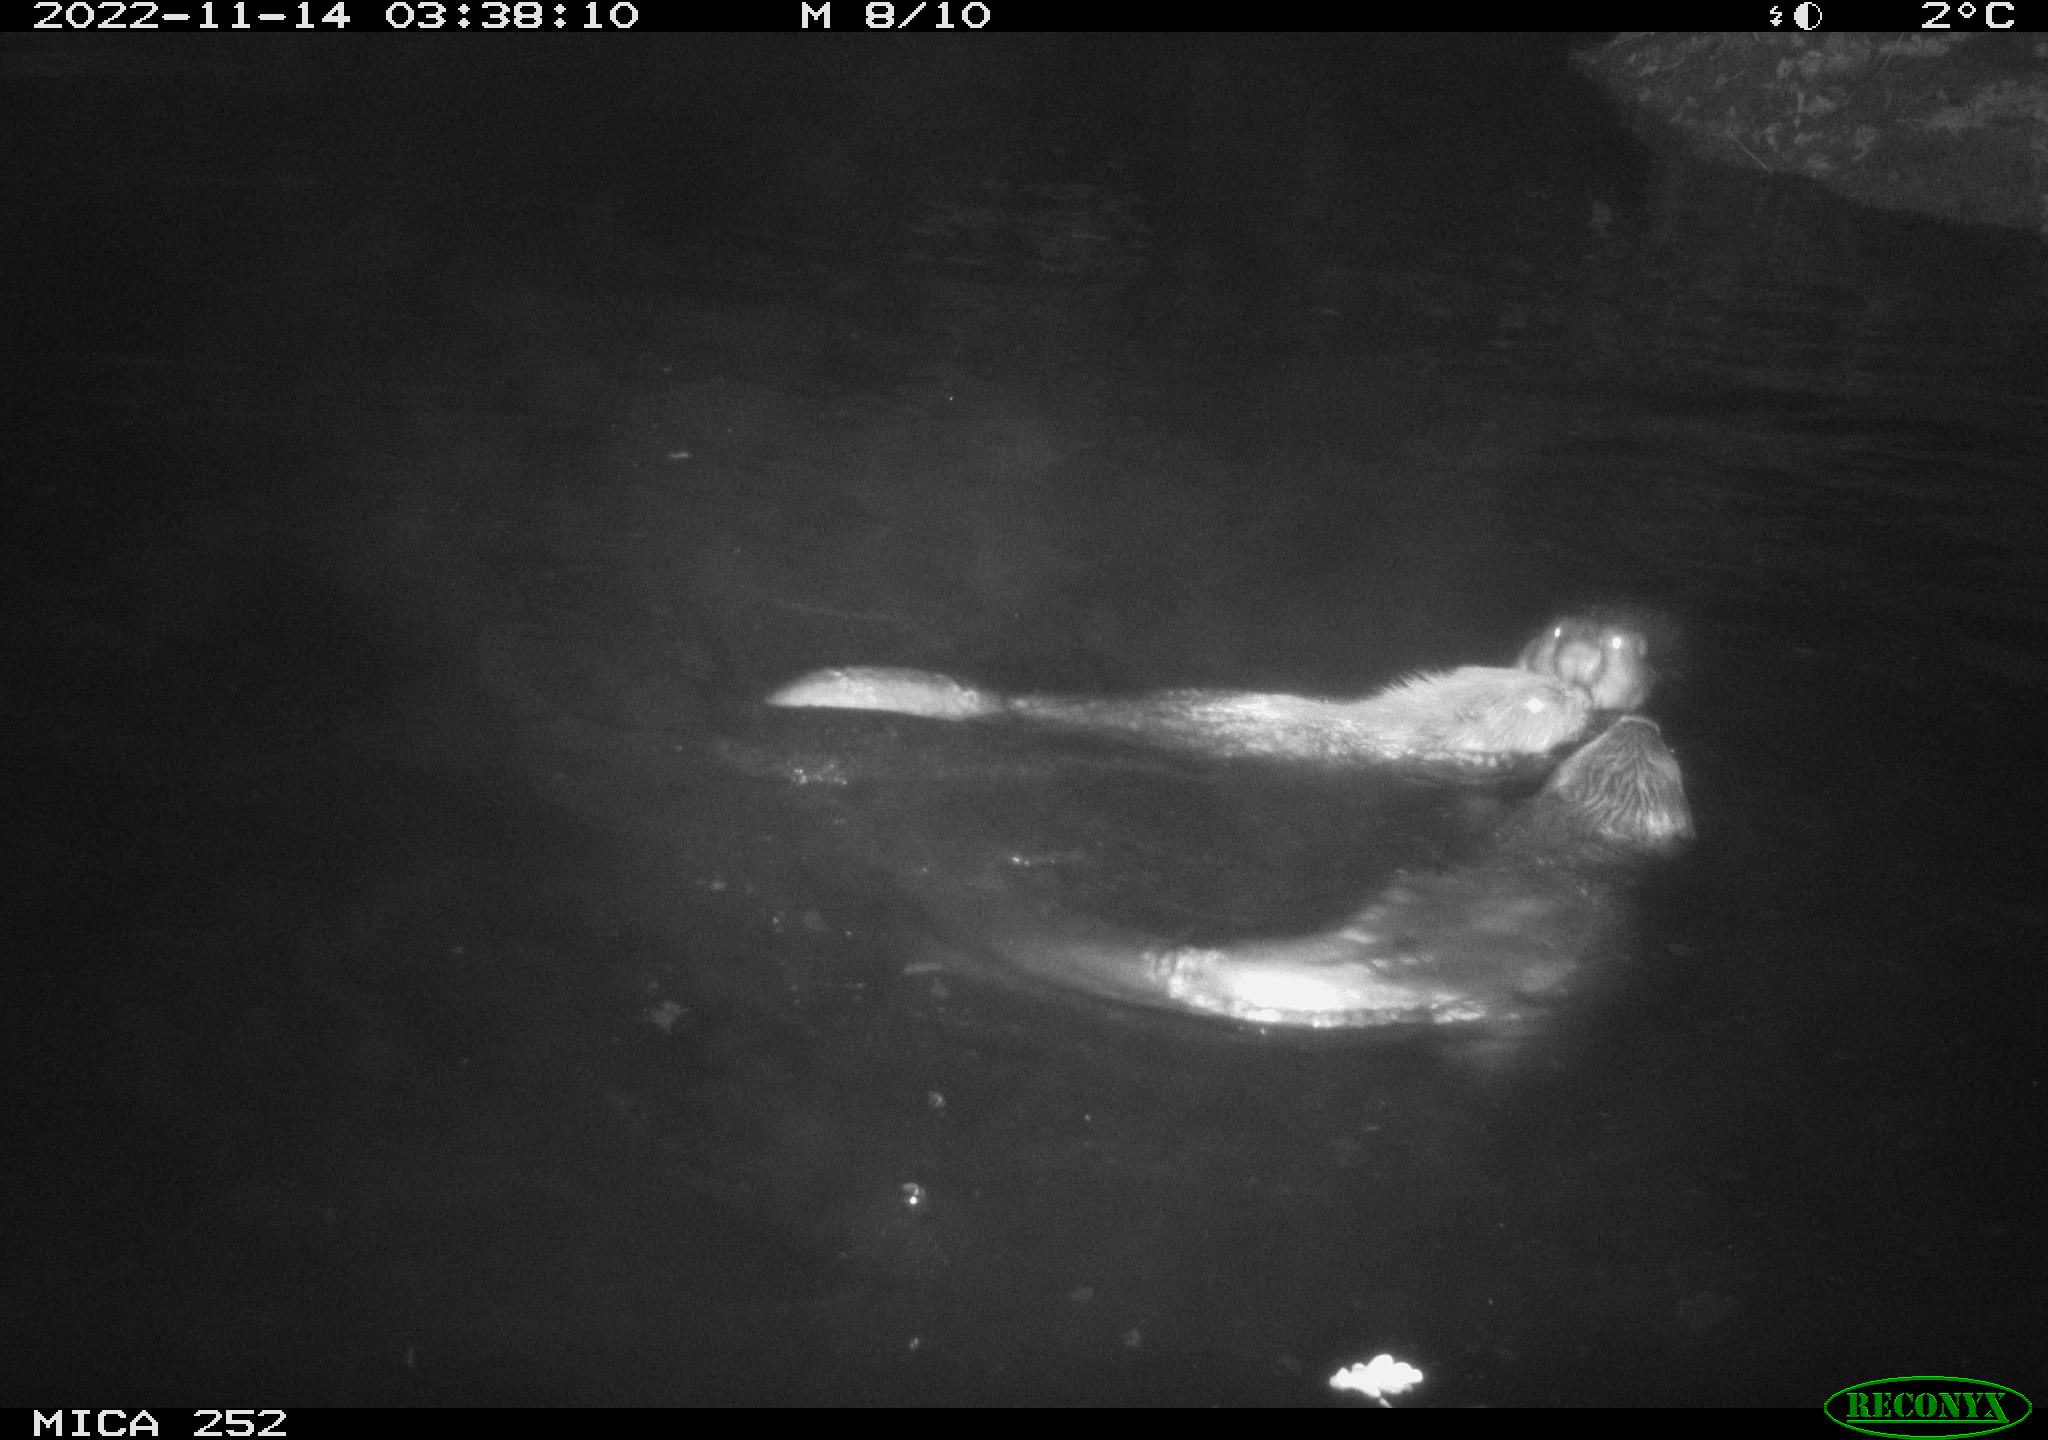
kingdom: Animalia
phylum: Chordata
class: Mammalia
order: Rodentia
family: Castoridae
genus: Castor
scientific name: Castor fiber
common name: Eurasian beaver
